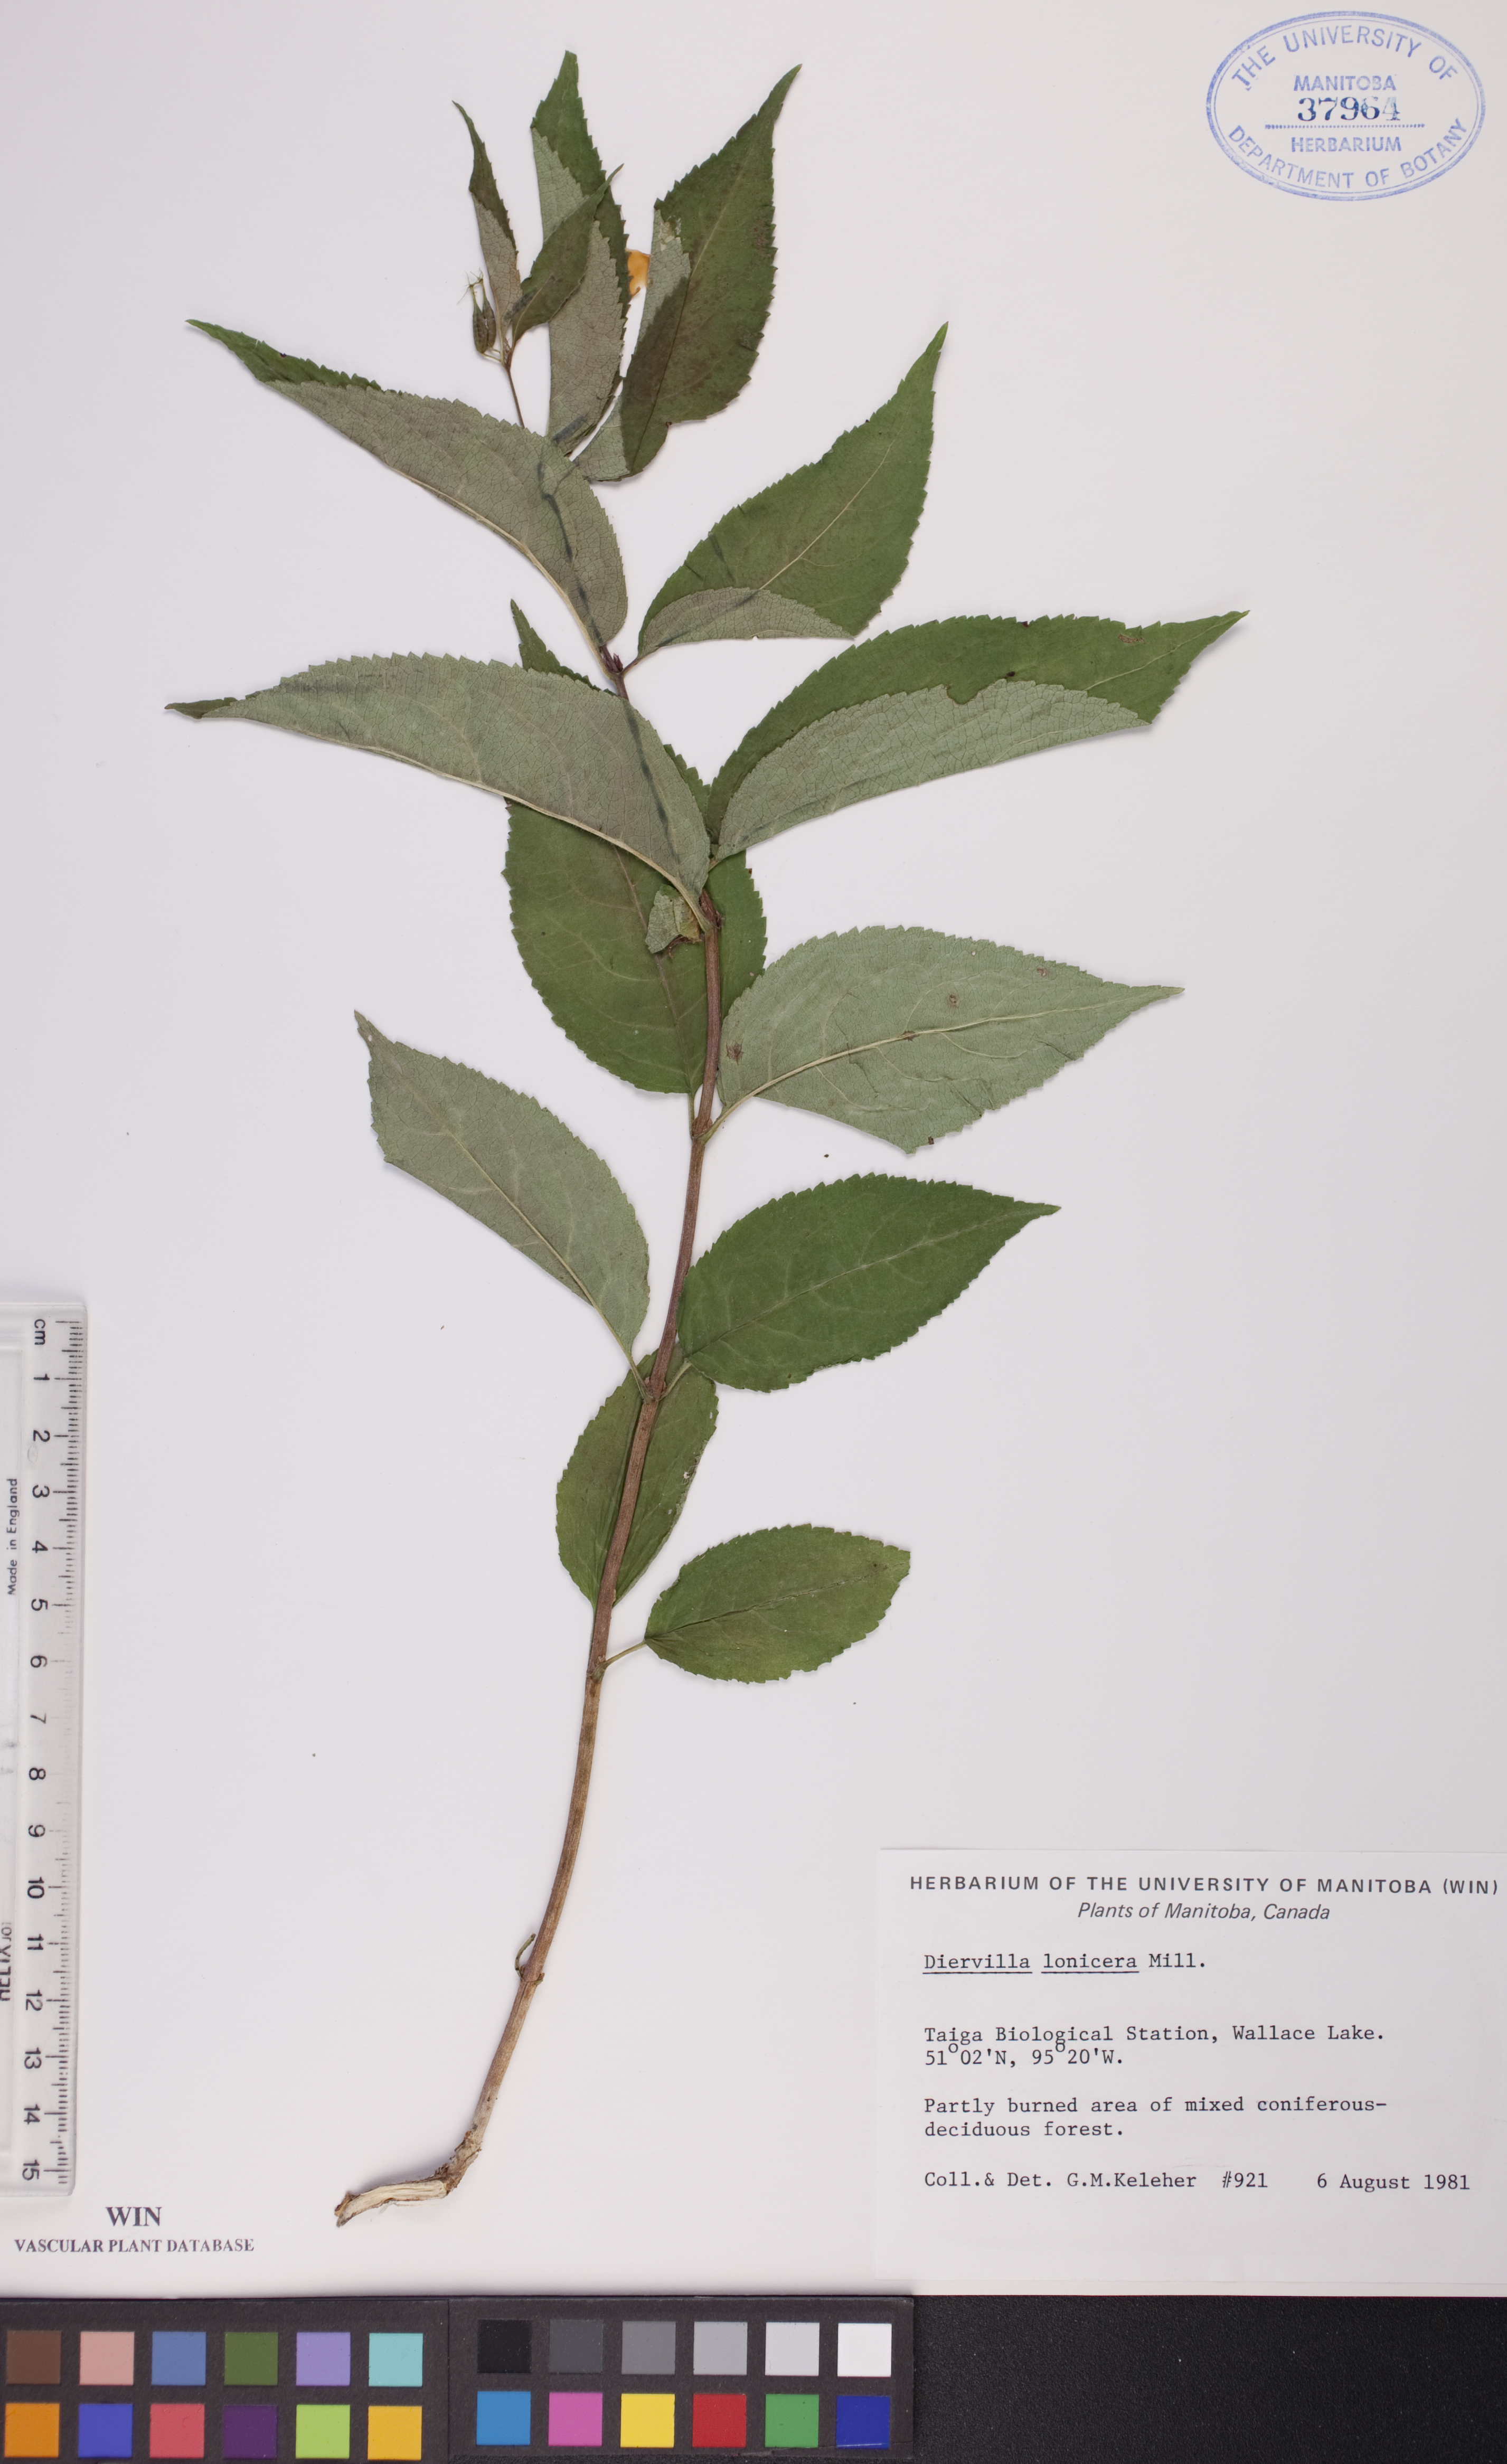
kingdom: Plantae
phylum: Tracheophyta
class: Magnoliopsida
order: Dipsacales
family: Caprifoliaceae
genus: Diervilla
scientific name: Diervilla lonicera
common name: Bush-honeysuckle
